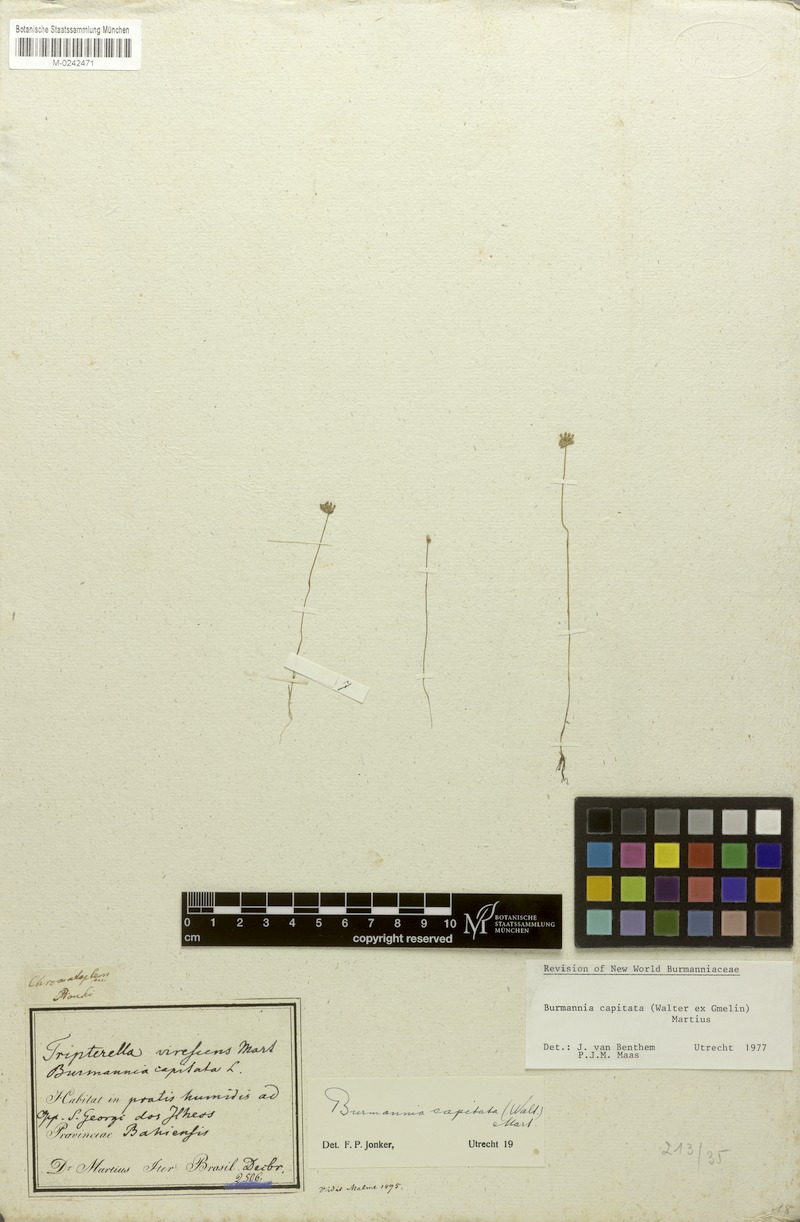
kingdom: Plantae
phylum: Tracheophyta
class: Liliopsida
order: Dioscoreales
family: Burmanniaceae
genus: Burmannia
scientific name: Burmannia capitata
